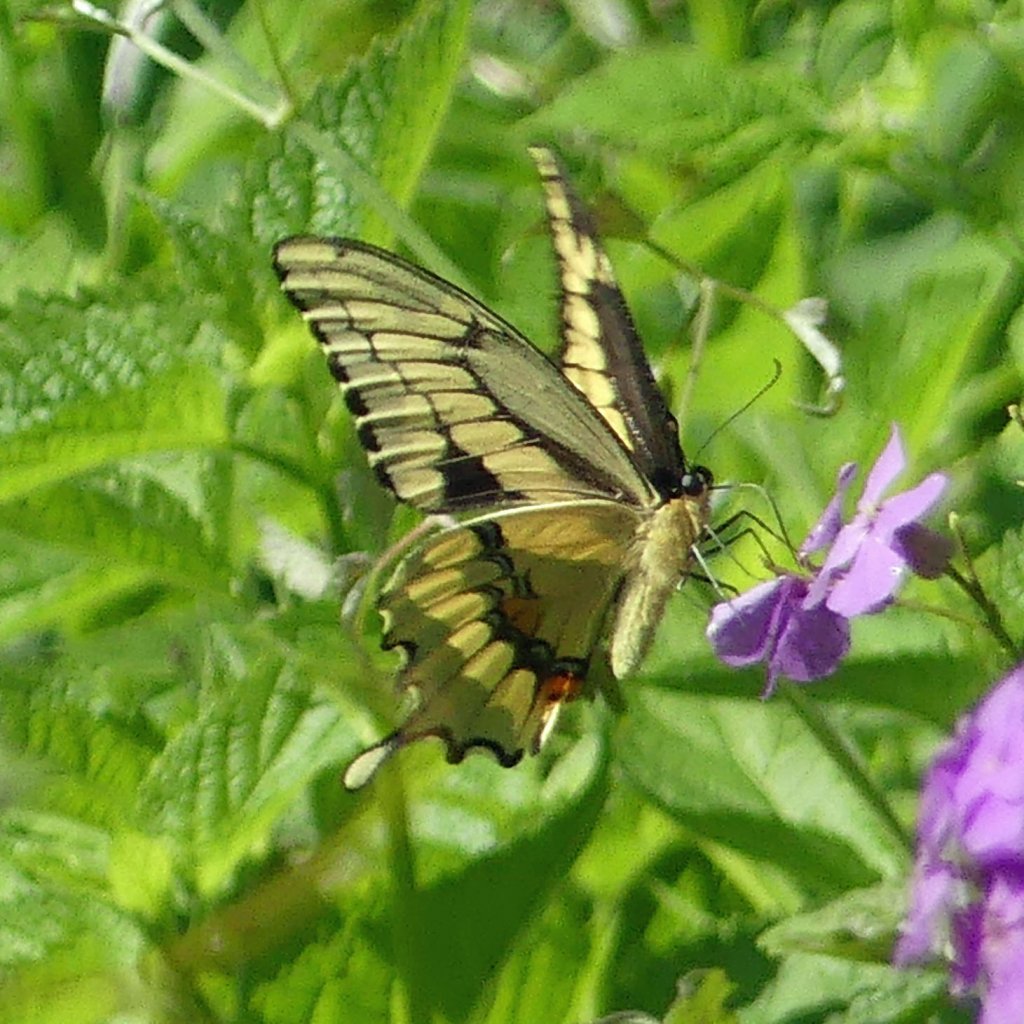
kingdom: Animalia
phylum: Arthropoda
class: Insecta
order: Lepidoptera
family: Papilionidae
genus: Papilio
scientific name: Papilio cresphontes
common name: Eastern Giant Swallowtail
